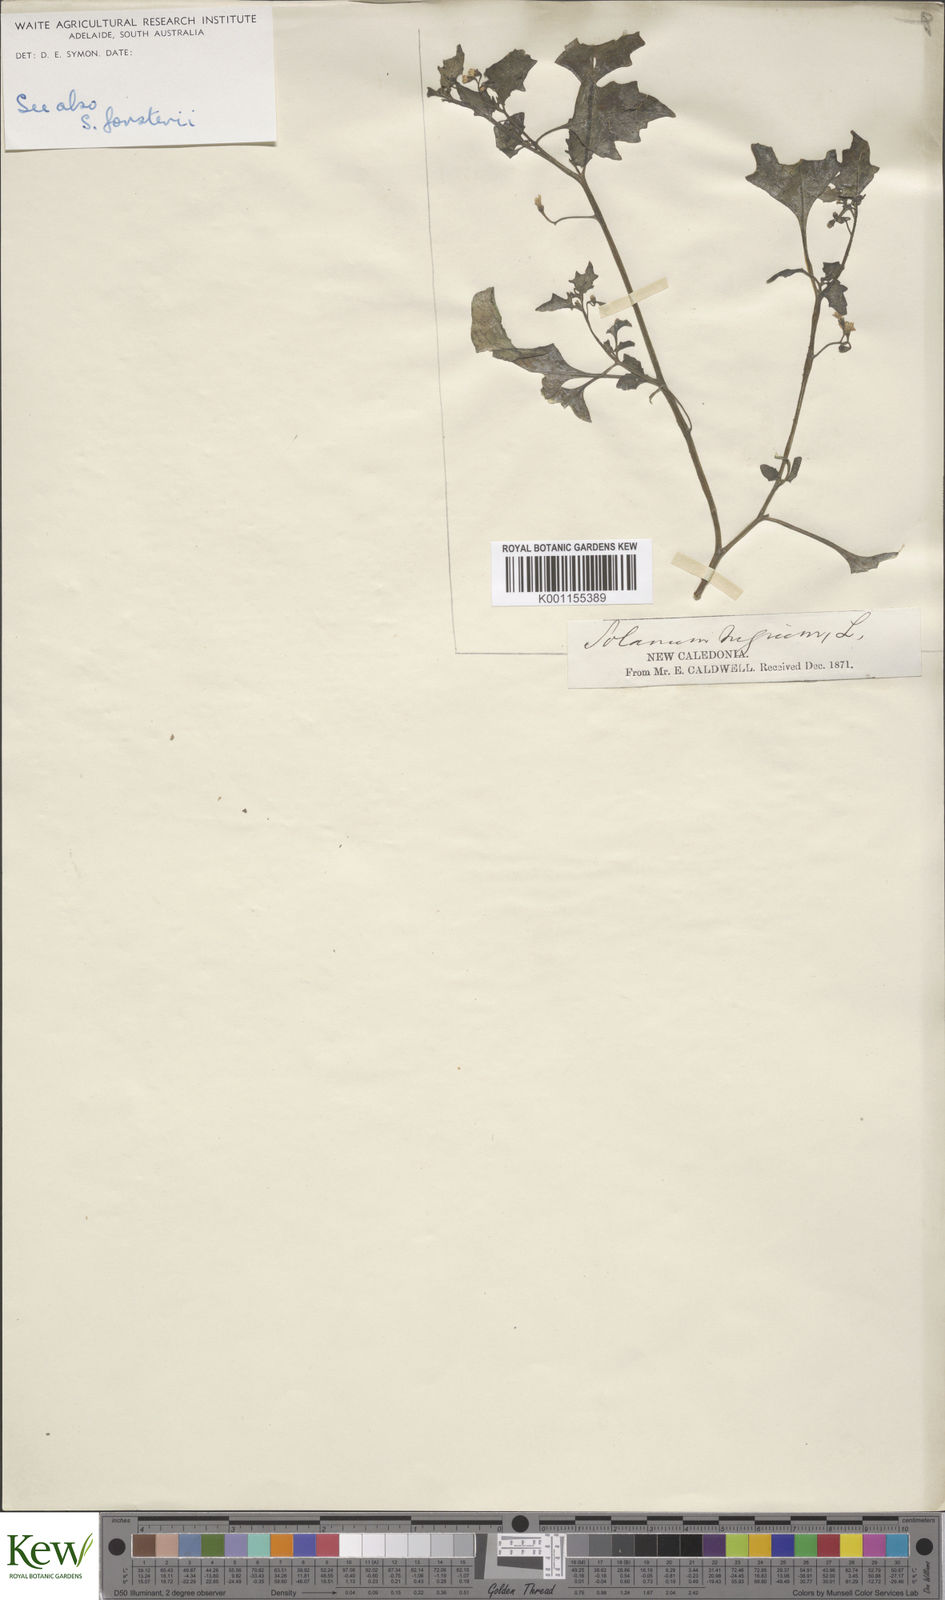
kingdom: Plantae
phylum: Tracheophyta
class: Magnoliopsida
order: Solanales
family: Solanaceae
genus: Solanum
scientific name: Solanum
